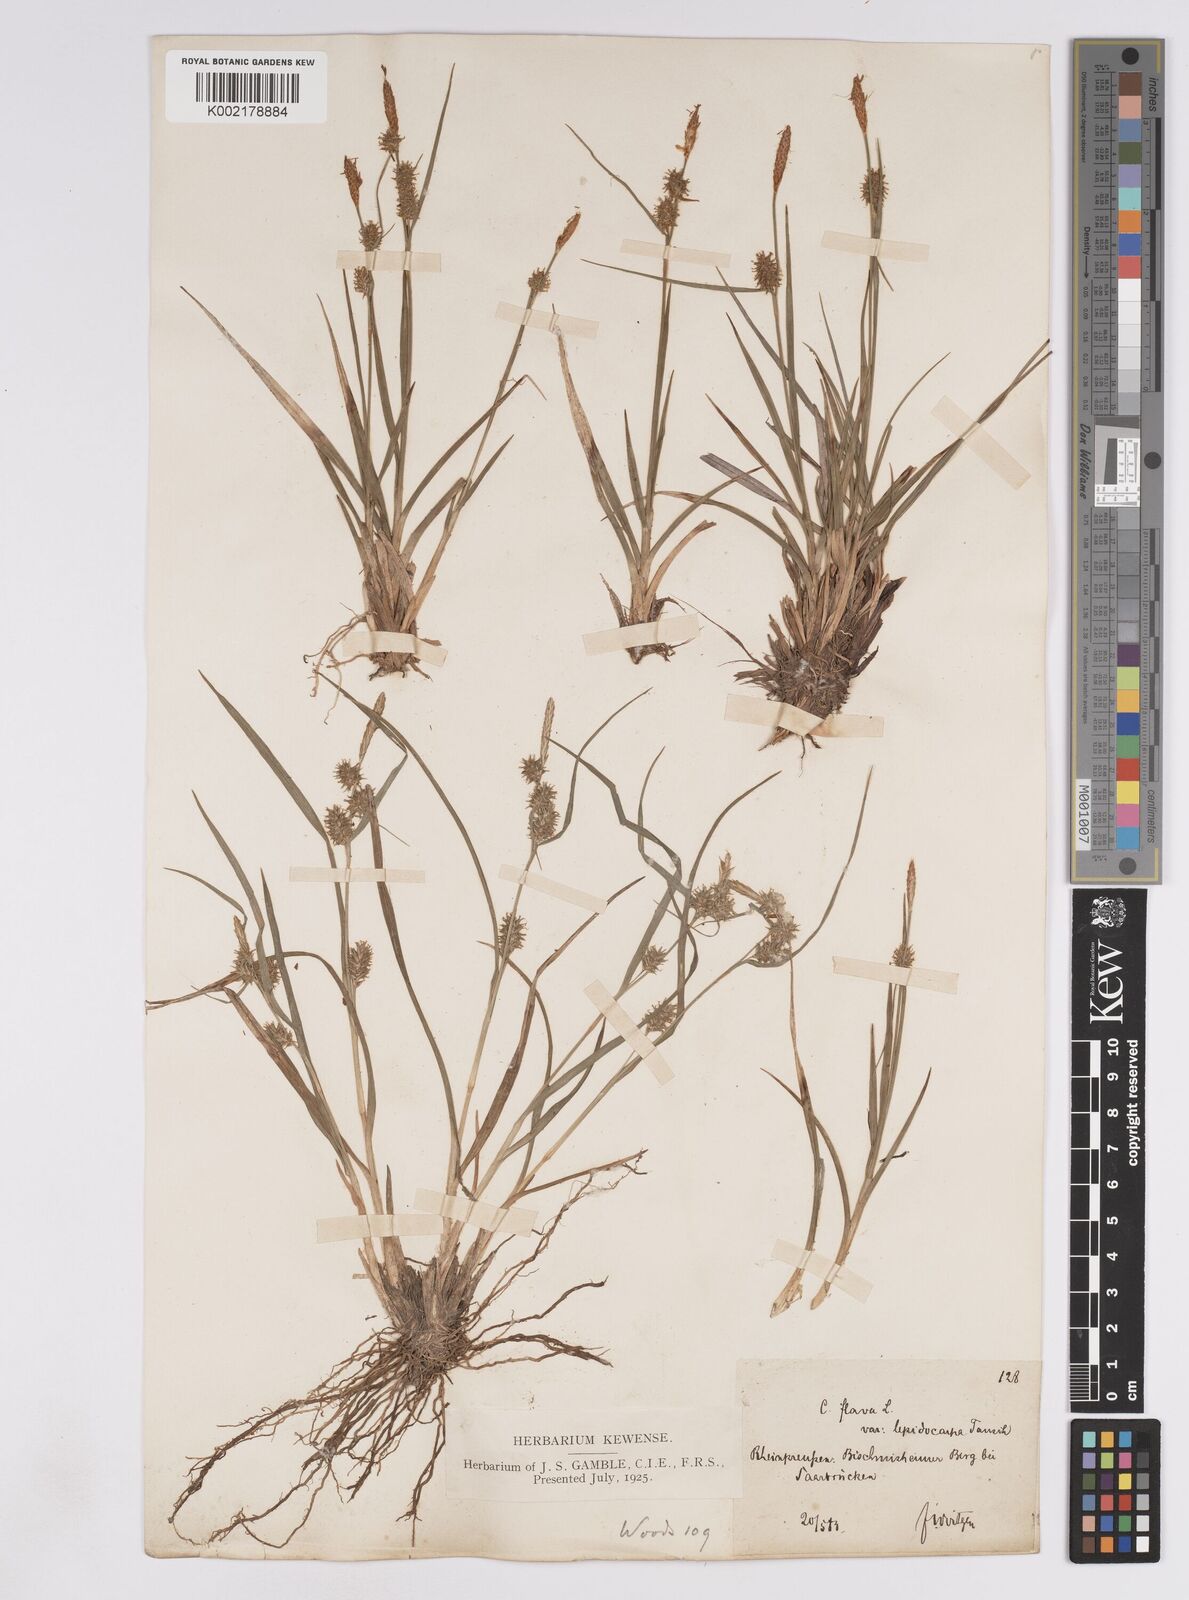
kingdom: Plantae
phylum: Tracheophyta
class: Liliopsida
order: Poales
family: Cyperaceae
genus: Carex
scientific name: Carex lepidocarpa
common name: Long-stalked yellow-sedge
